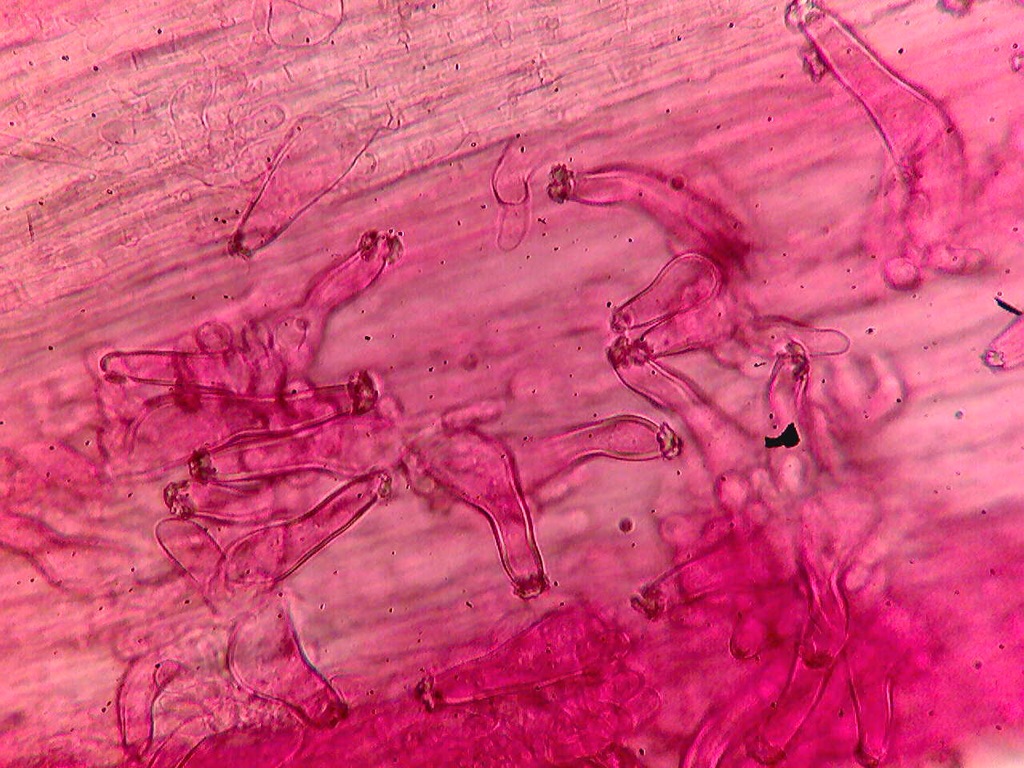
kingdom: Fungi
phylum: Basidiomycota
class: Agaricomycetes
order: Agaricales
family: Inocybaceae
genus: Inocybe
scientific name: Inocybe fibrosoides
